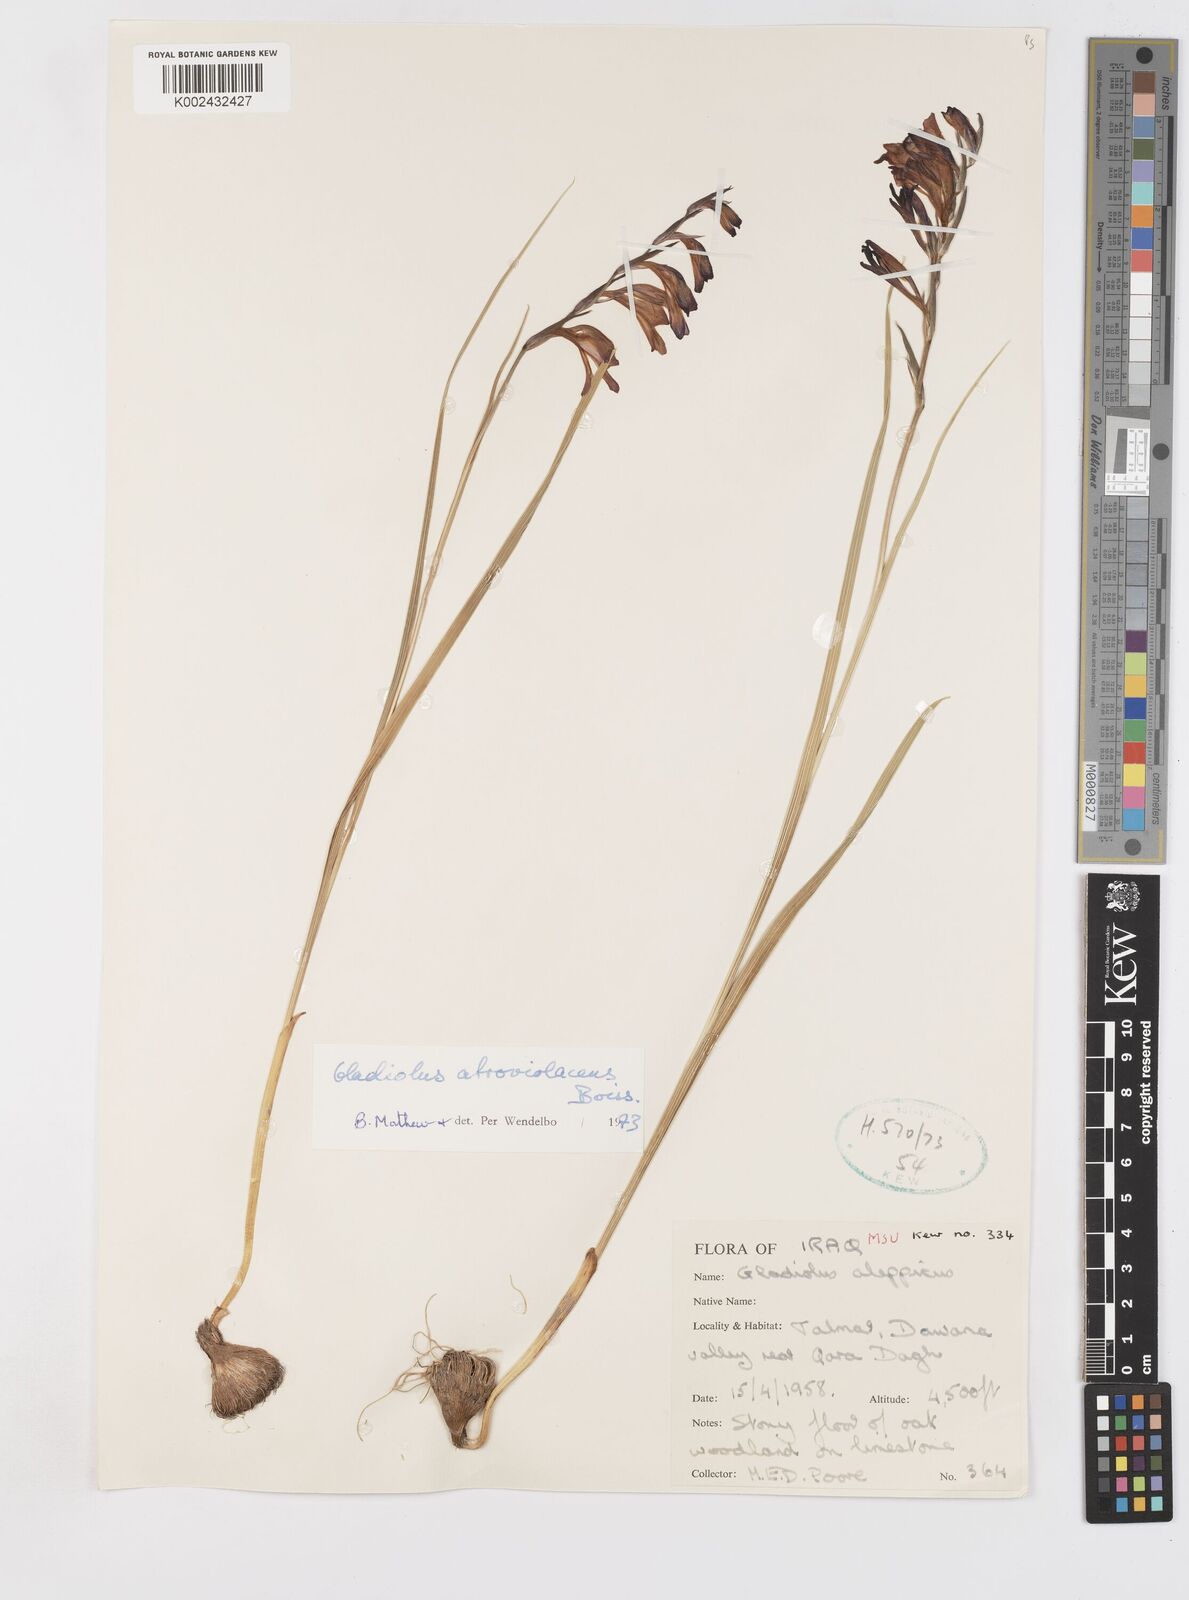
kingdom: Plantae
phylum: Tracheophyta
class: Liliopsida
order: Asparagales
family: Iridaceae
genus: Gladiolus
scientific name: Gladiolus atroviolaceus
